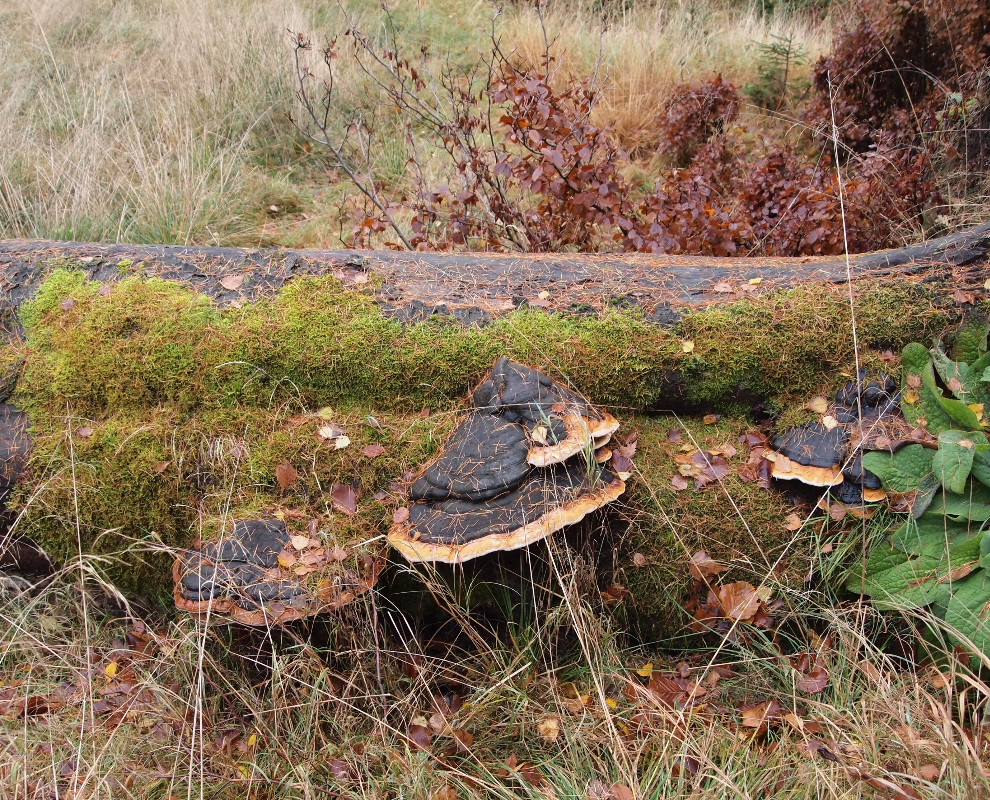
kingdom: Fungi
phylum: Basidiomycota
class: Agaricomycetes
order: Polyporales
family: Fomitopsidaceae
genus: Fomitopsis
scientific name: Fomitopsis pinicola
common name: randbæltet hovporesvamp
